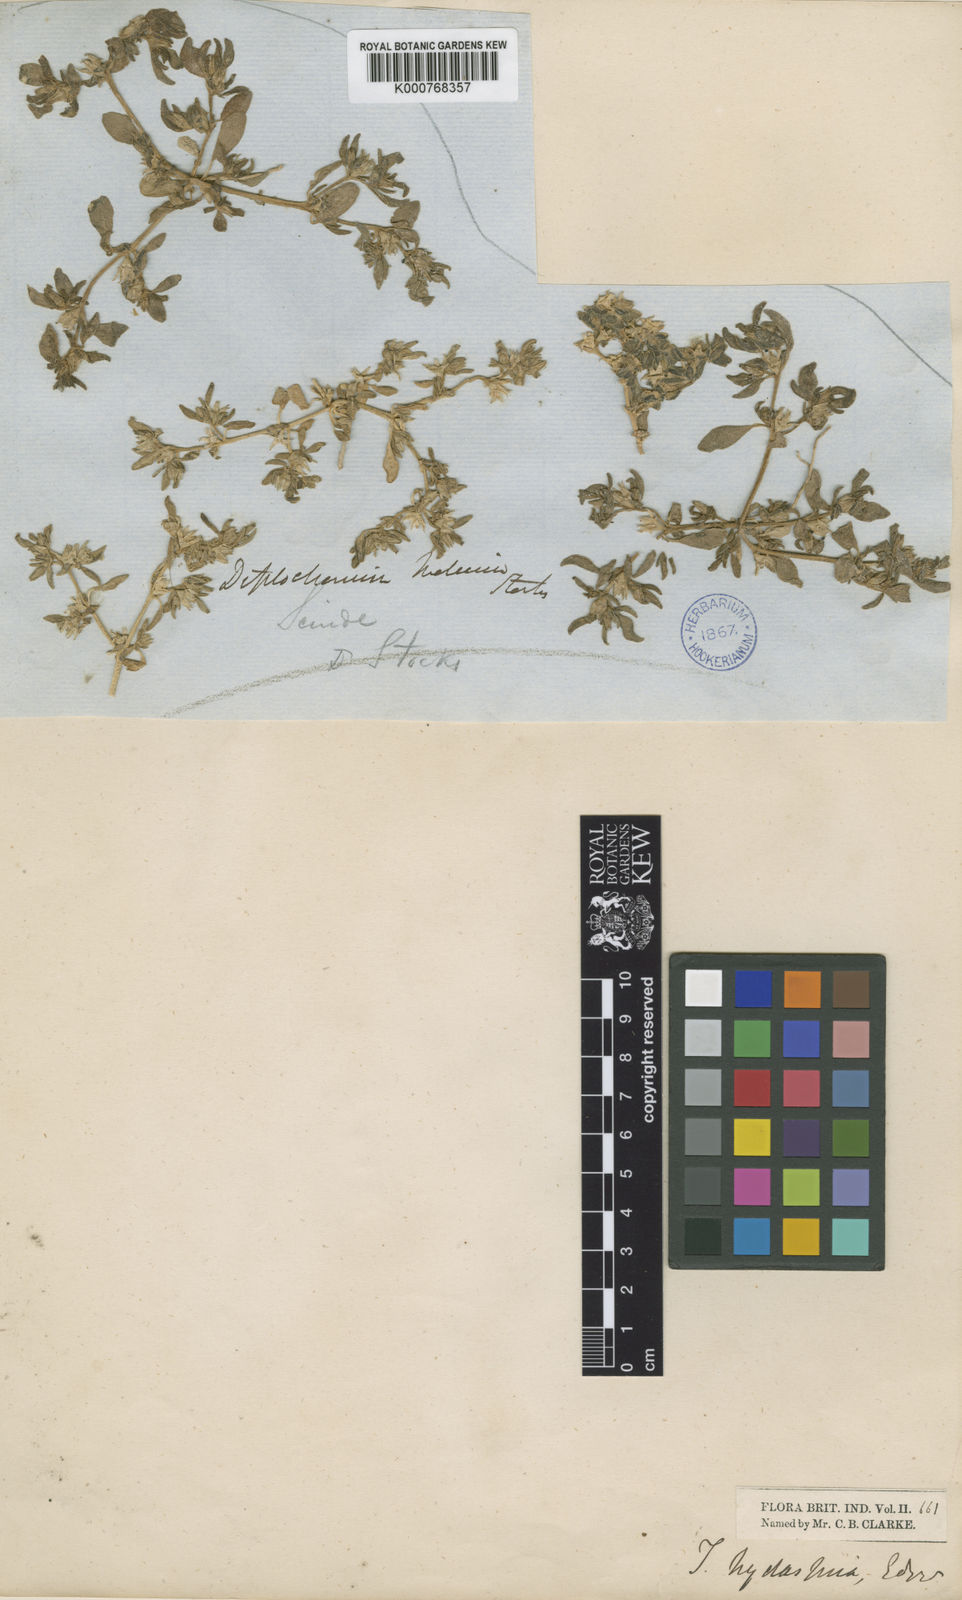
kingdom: Plantae
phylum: Tracheophyta
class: Magnoliopsida
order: Caryophyllales
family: Aizoaceae
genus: Sesuvium
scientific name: Sesuvium sesuvioides
